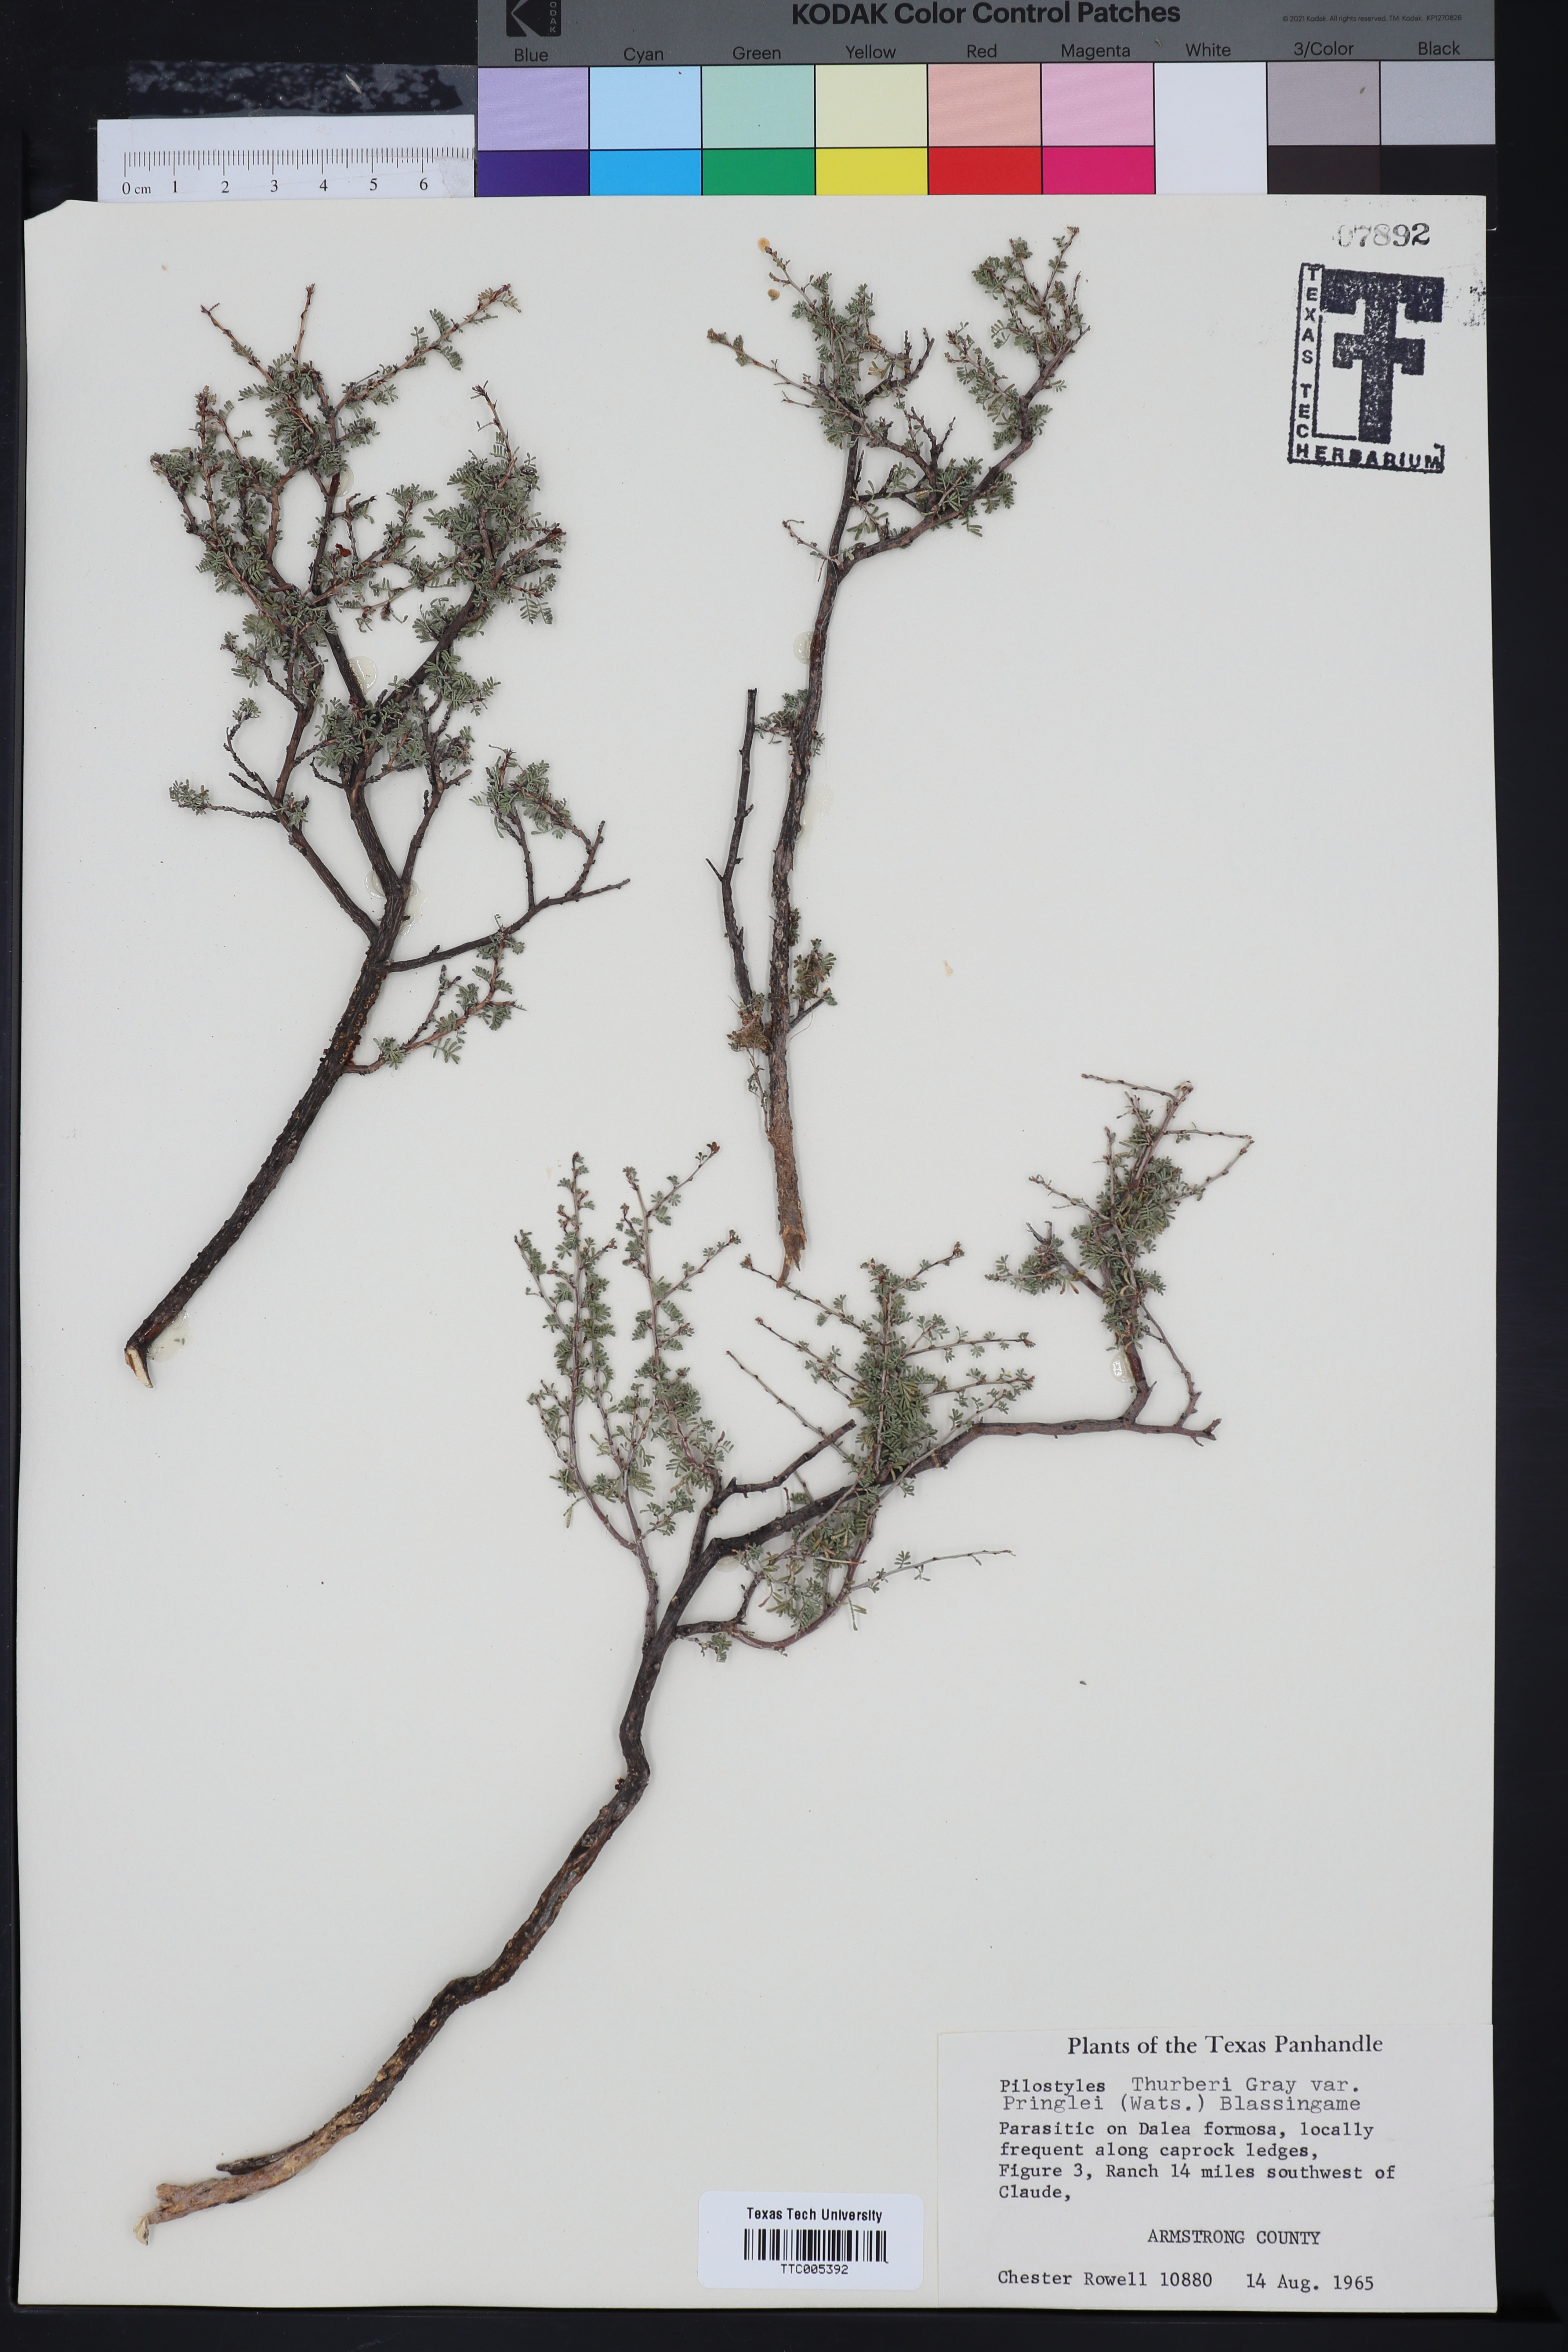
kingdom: Plantae
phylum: Tracheophyta
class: Magnoliopsida
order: Cucurbitales
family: Apodanthaceae
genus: Pilostyles
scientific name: Pilostyles thurberi
